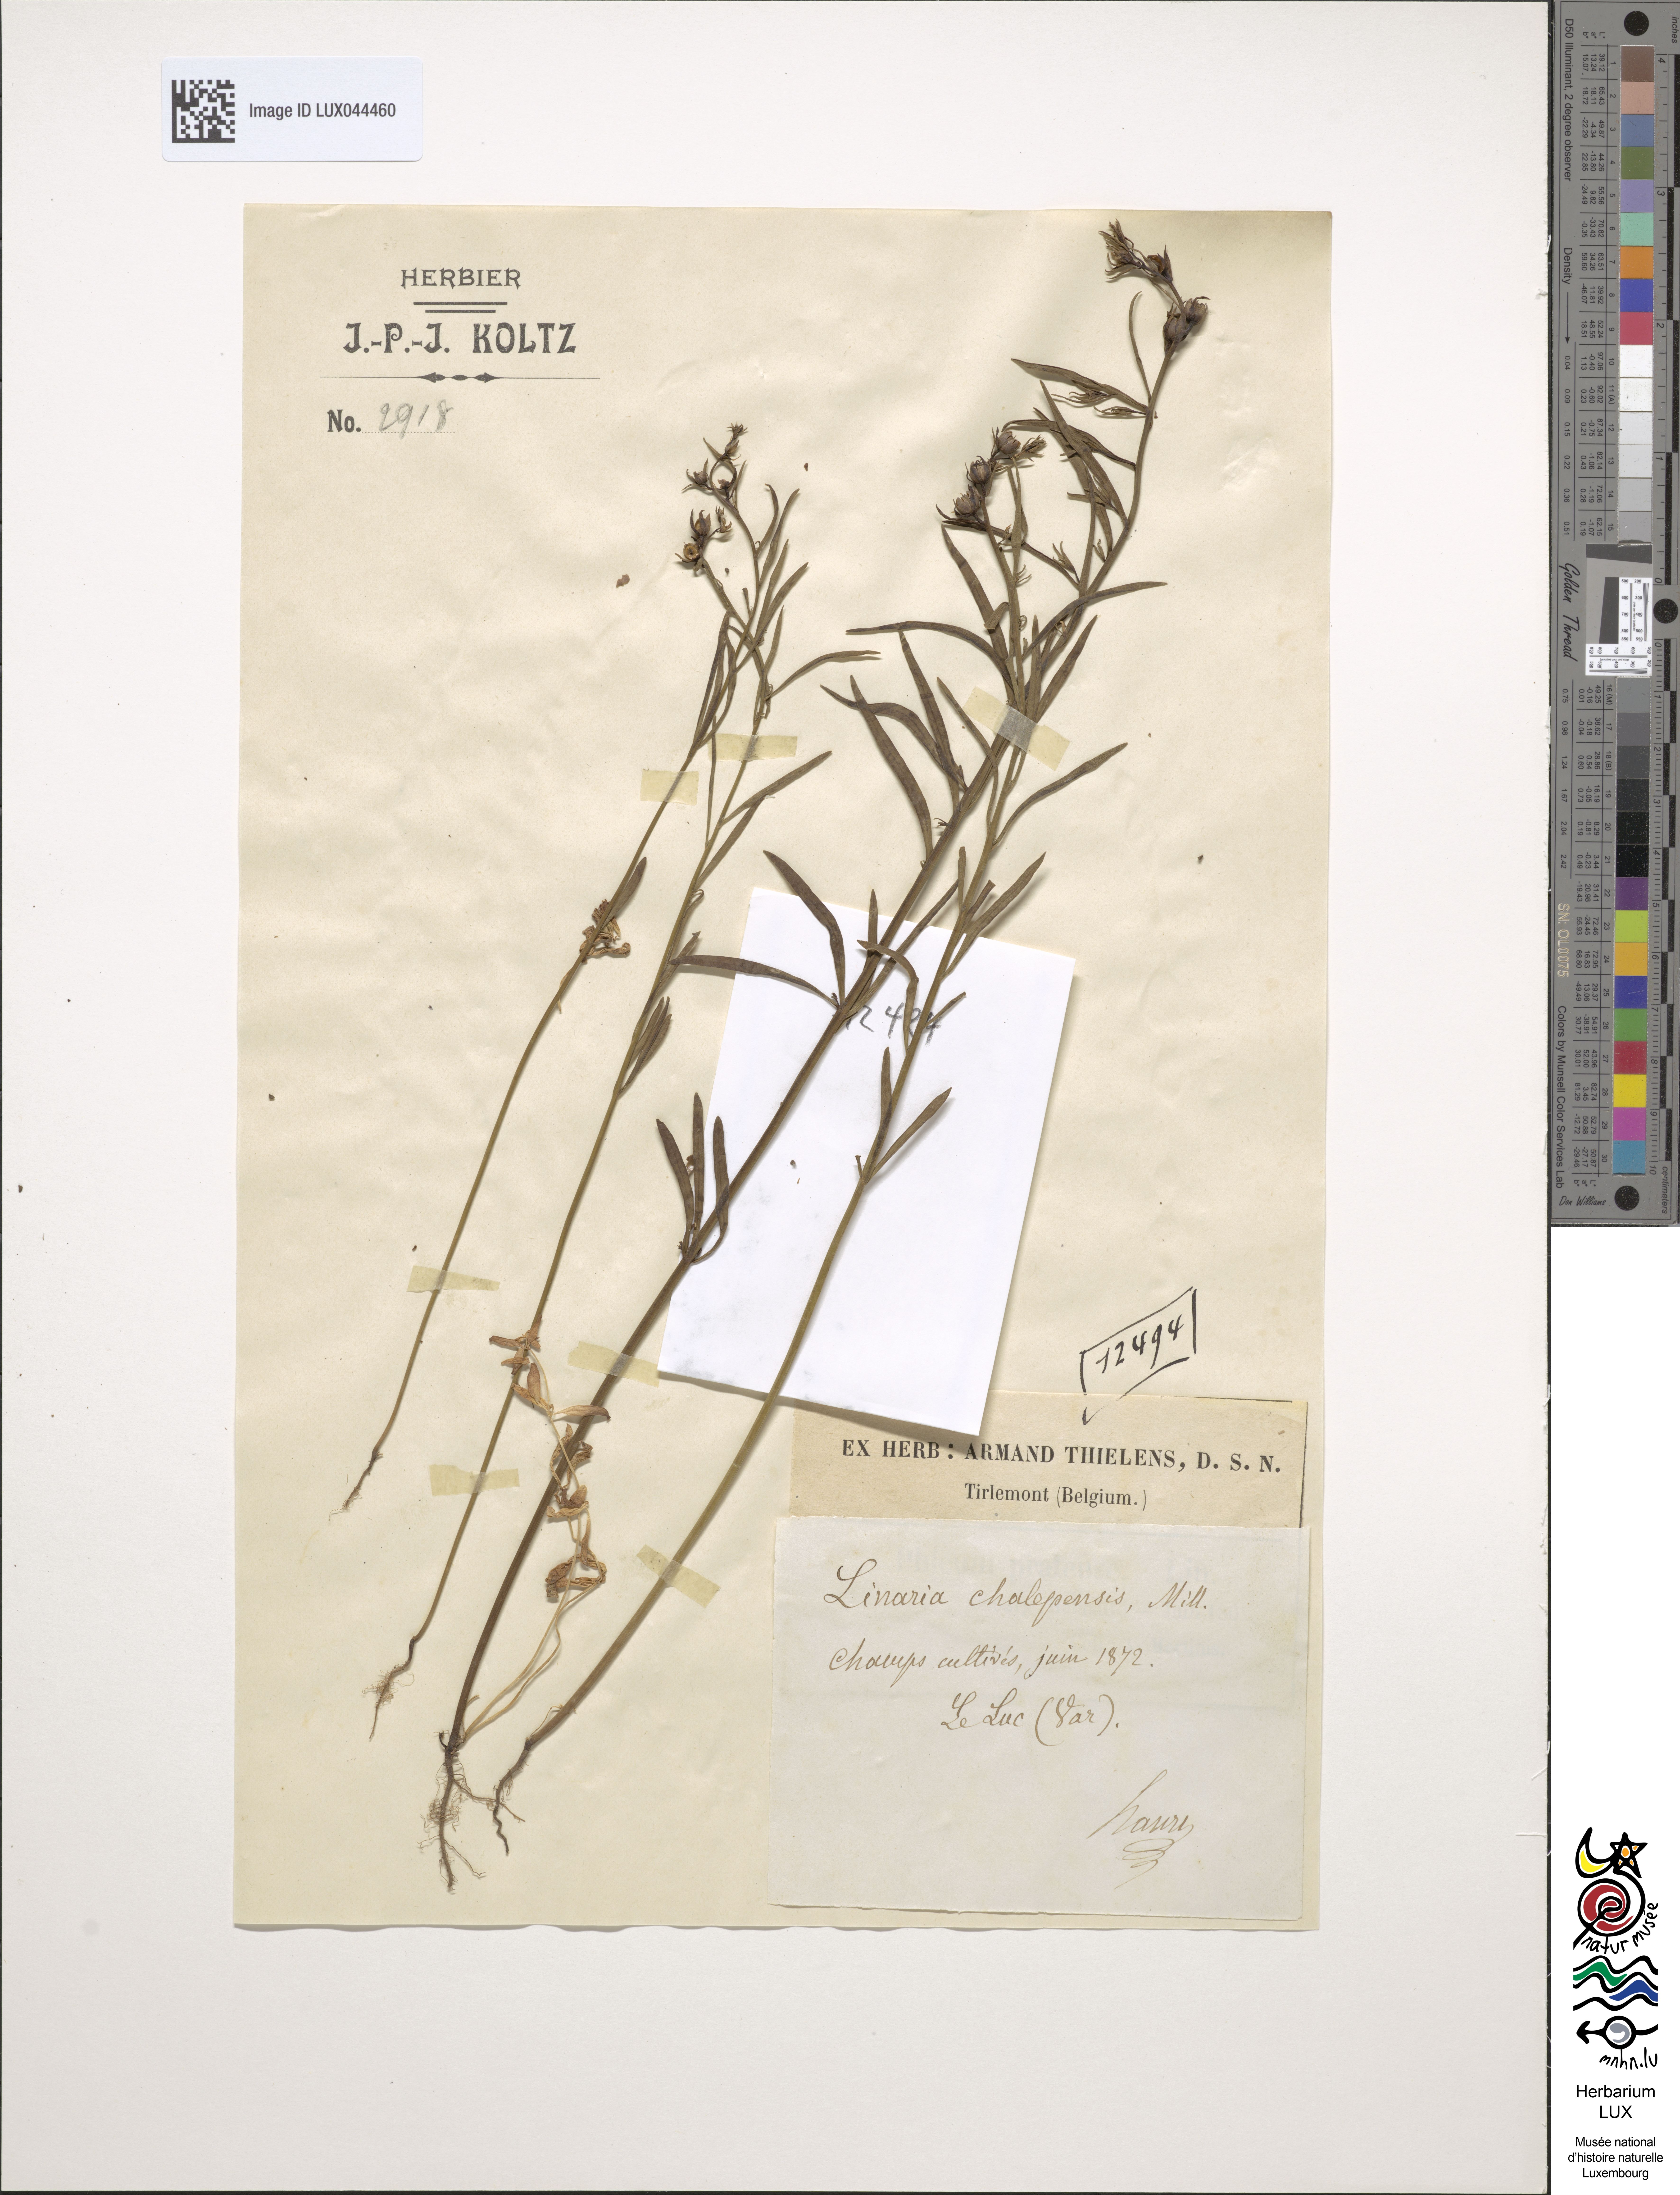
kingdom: Plantae
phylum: Tracheophyta
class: Magnoliopsida
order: Lamiales
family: Plantaginaceae
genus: Linaria
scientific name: Linaria chalepensis
